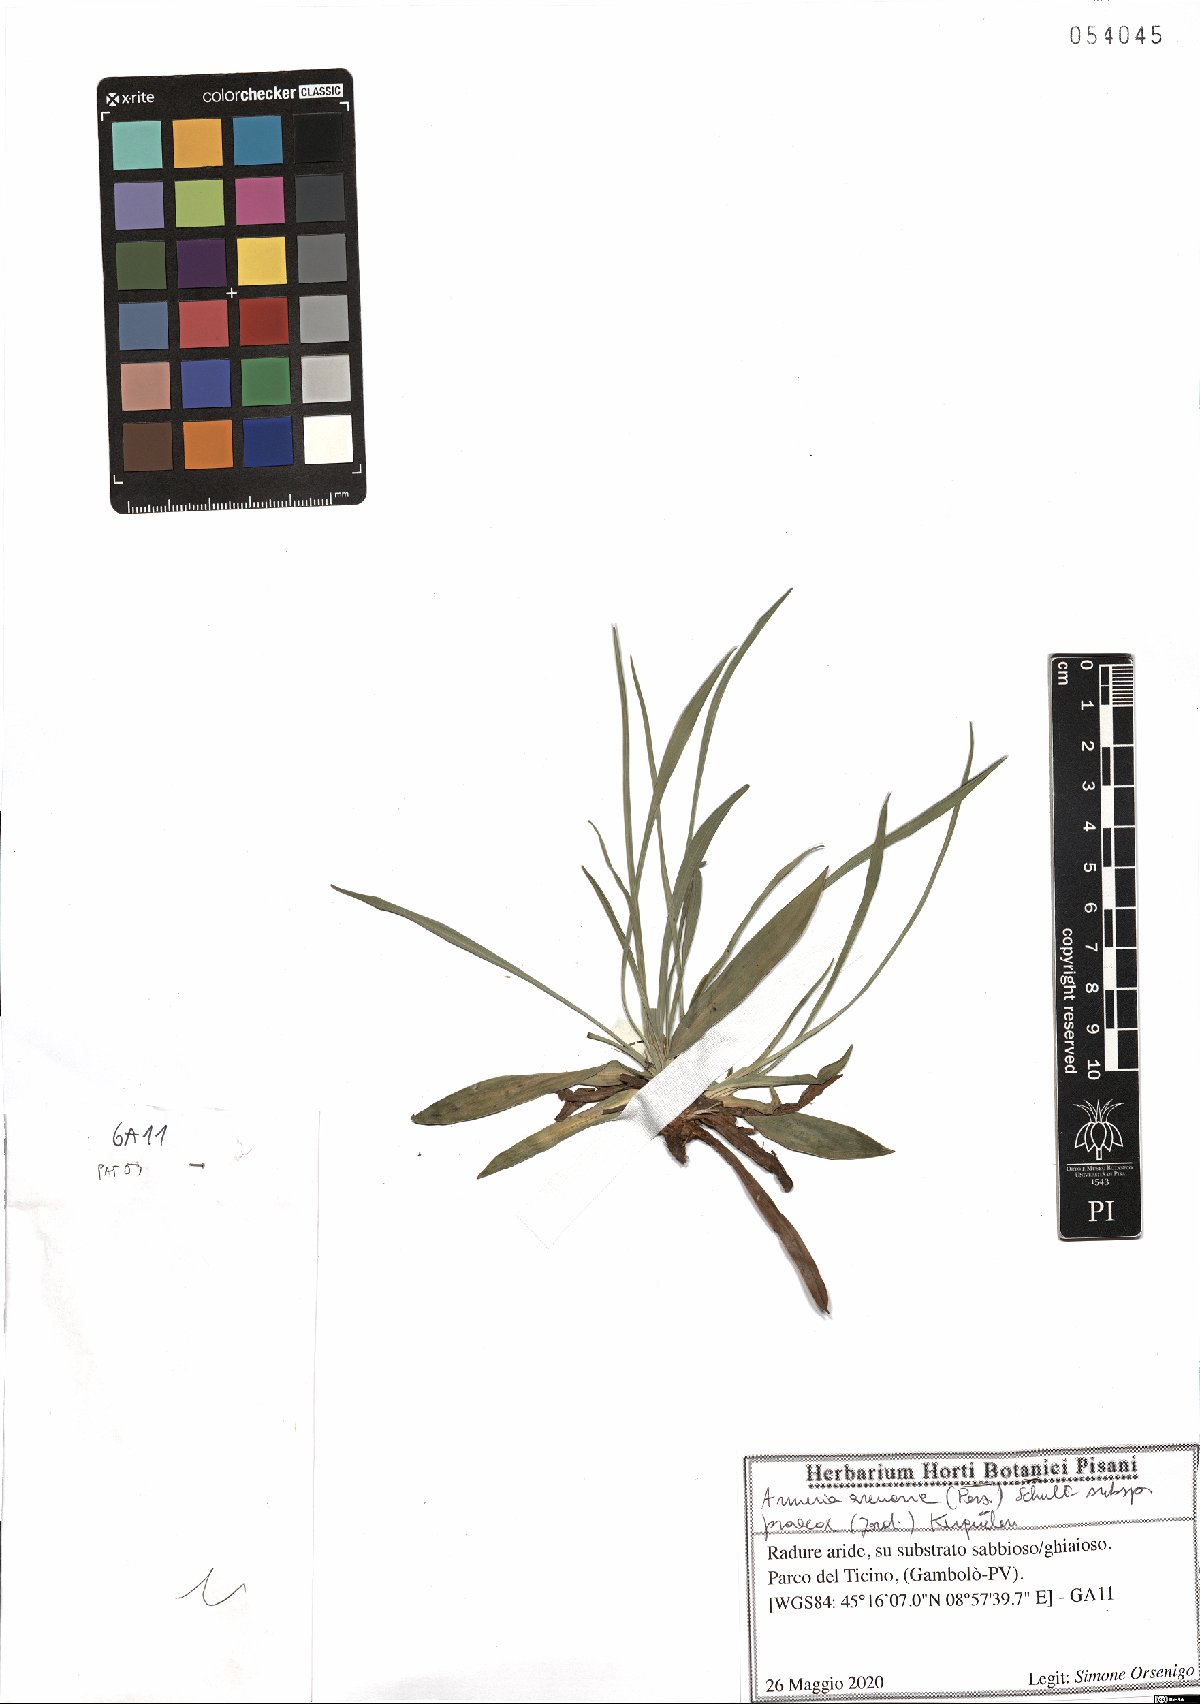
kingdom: Plantae
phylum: Tracheophyta
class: Magnoliopsida
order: Caryophyllales
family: Plumbaginaceae
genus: Armeria
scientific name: Armeria arenaria
